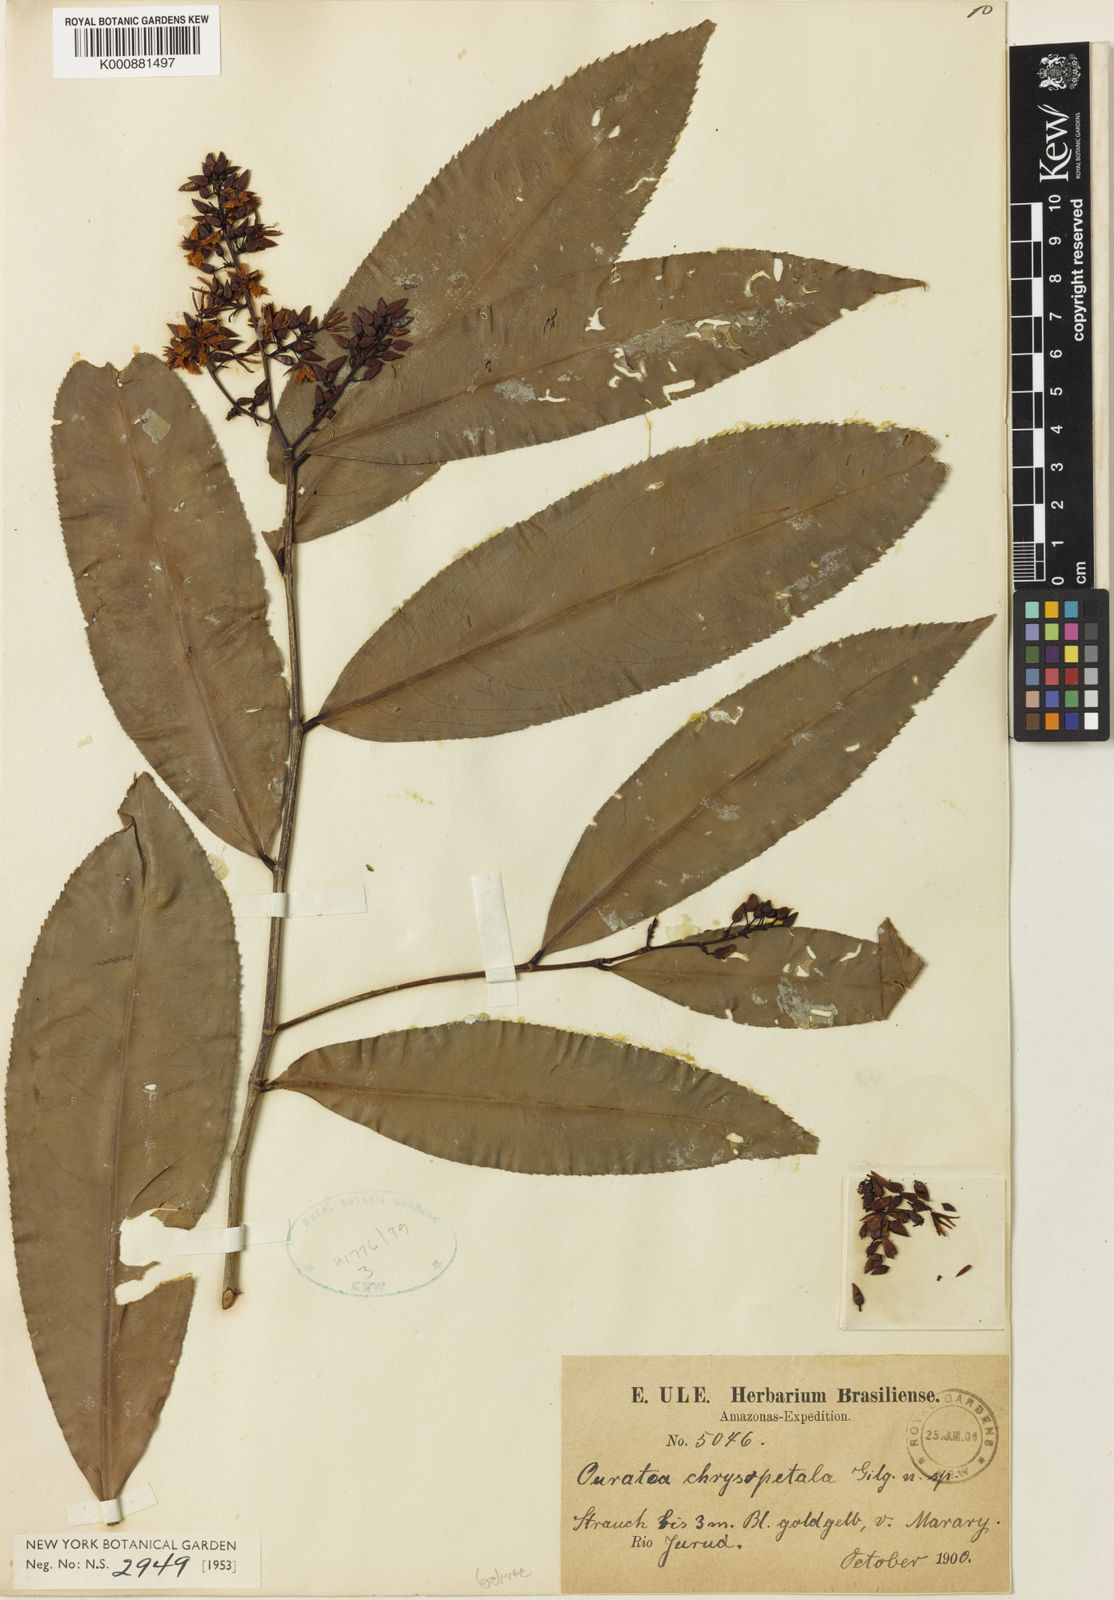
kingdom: Plantae
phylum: Tracheophyta
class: Magnoliopsida
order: Malpighiales
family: Ochnaceae
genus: Ouratea
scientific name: Ouratea chrysopetala
